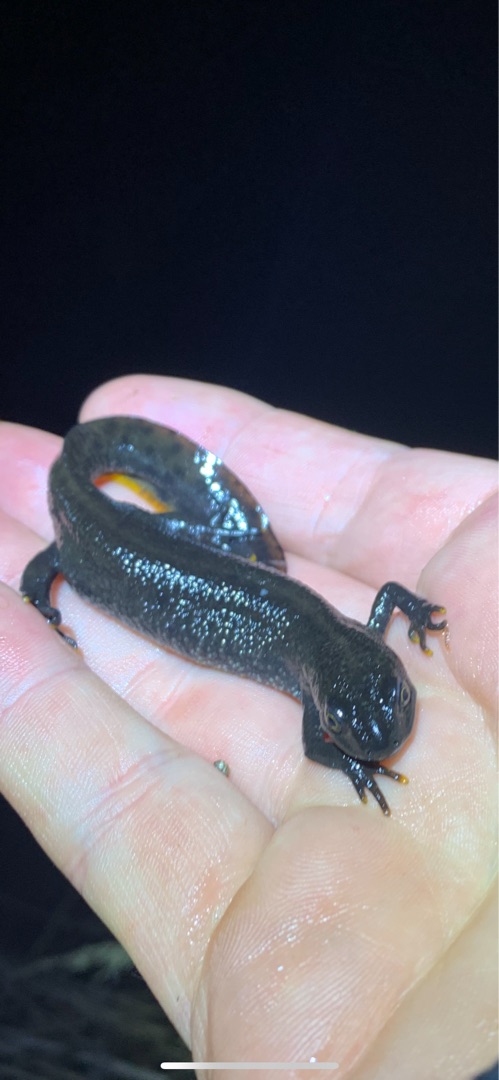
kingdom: Animalia
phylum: Chordata
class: Amphibia
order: Caudata
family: Salamandridae
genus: Triturus
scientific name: Triturus cristatus
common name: Stor vandsalamander
